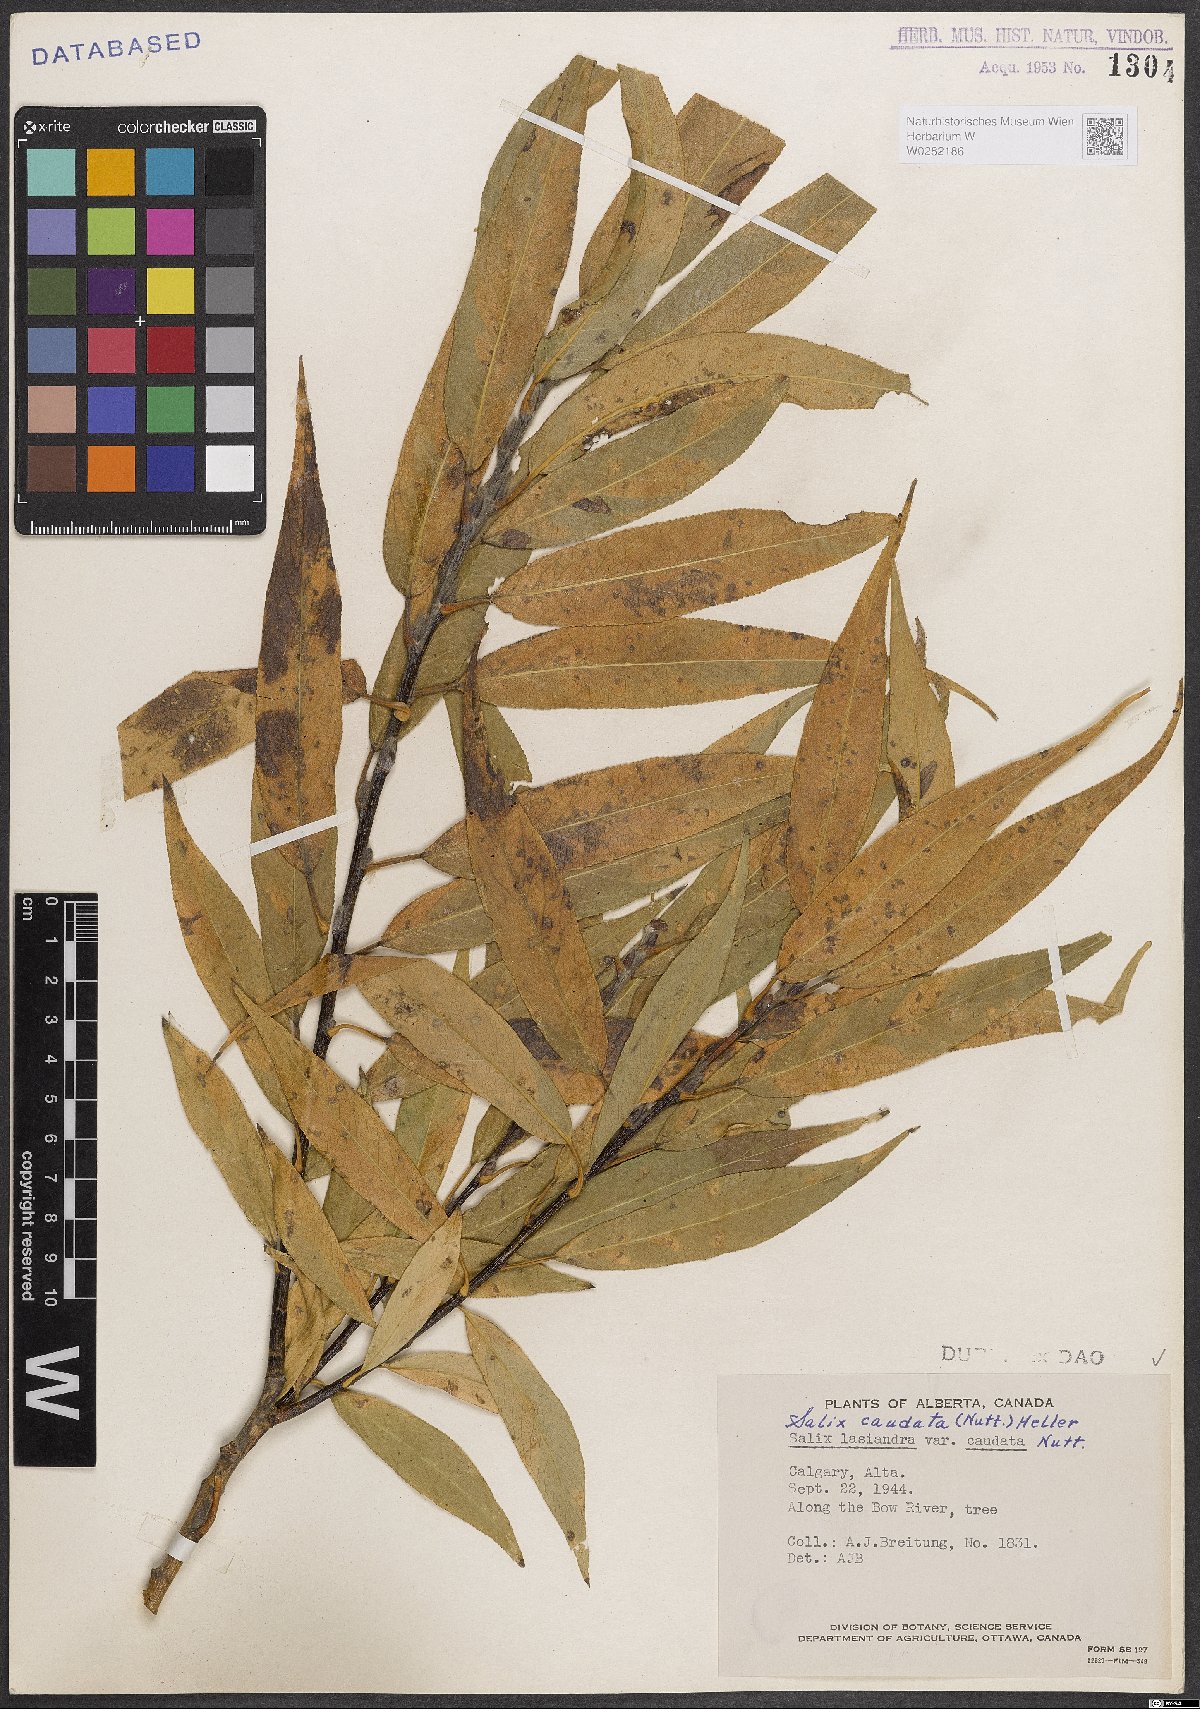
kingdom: Plantae
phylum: Tracheophyta
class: Magnoliopsida
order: Malpighiales
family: Salicaceae
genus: Salix
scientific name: Salix lucida
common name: Shining willow
